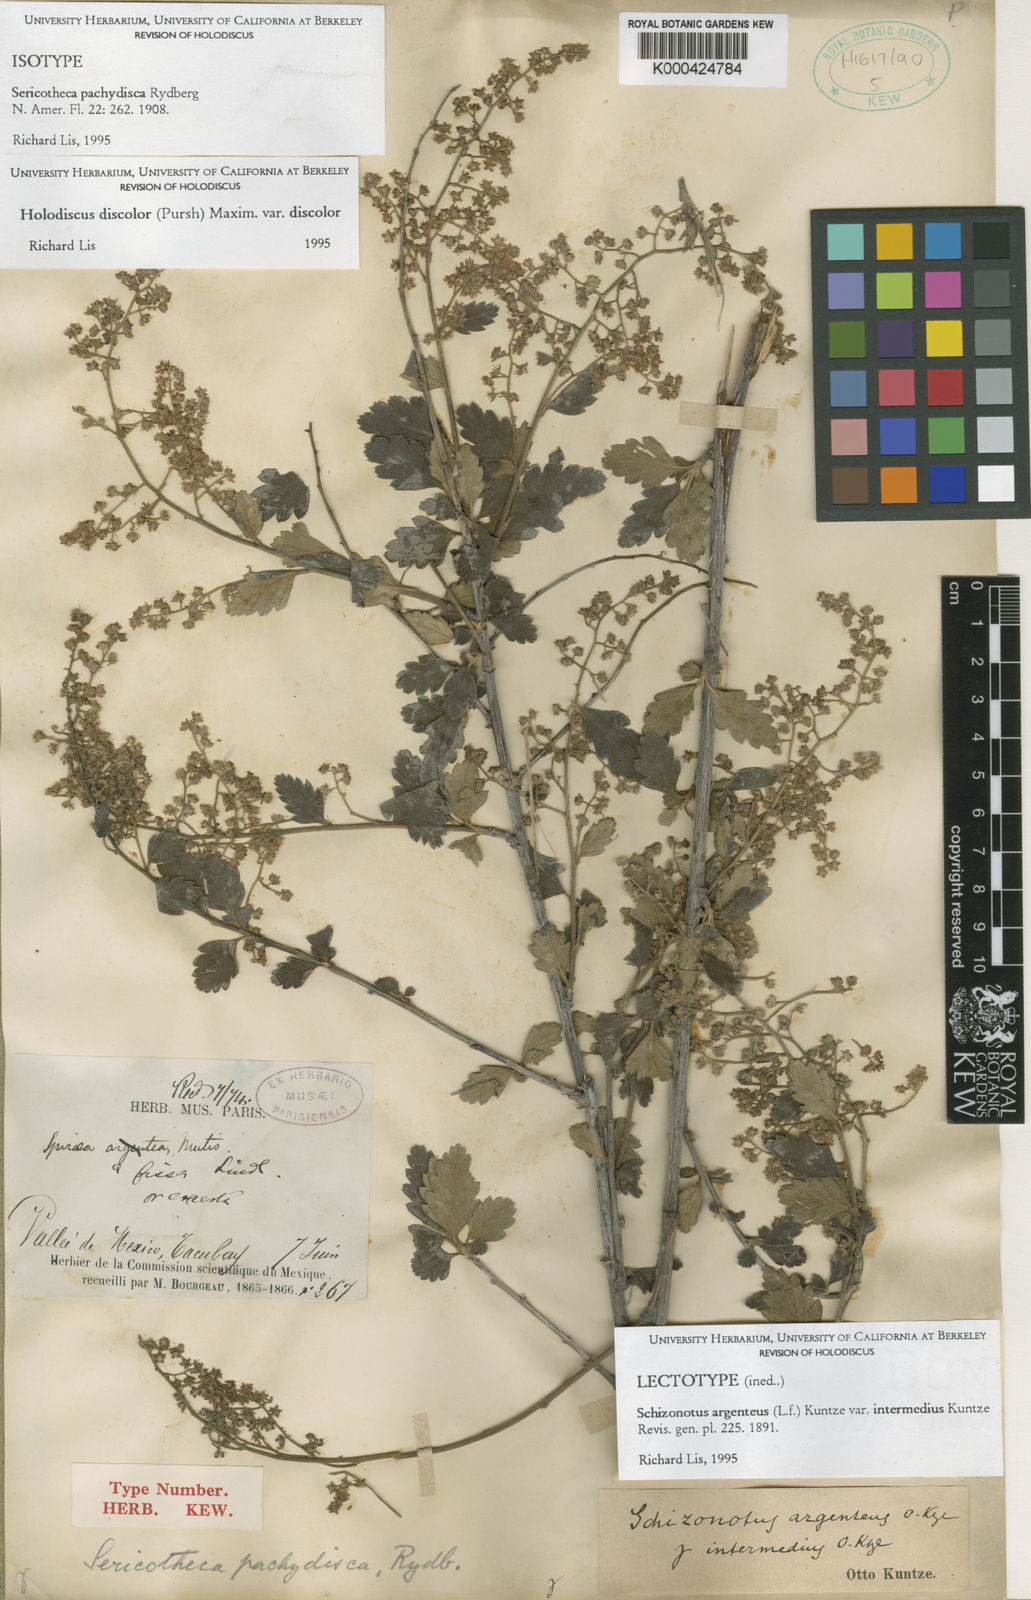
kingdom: Plantae
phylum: Tracheophyta
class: Magnoliopsida
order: Rosales
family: Rosaceae
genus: Holodiscus
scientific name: Holodiscus pachydiscus
